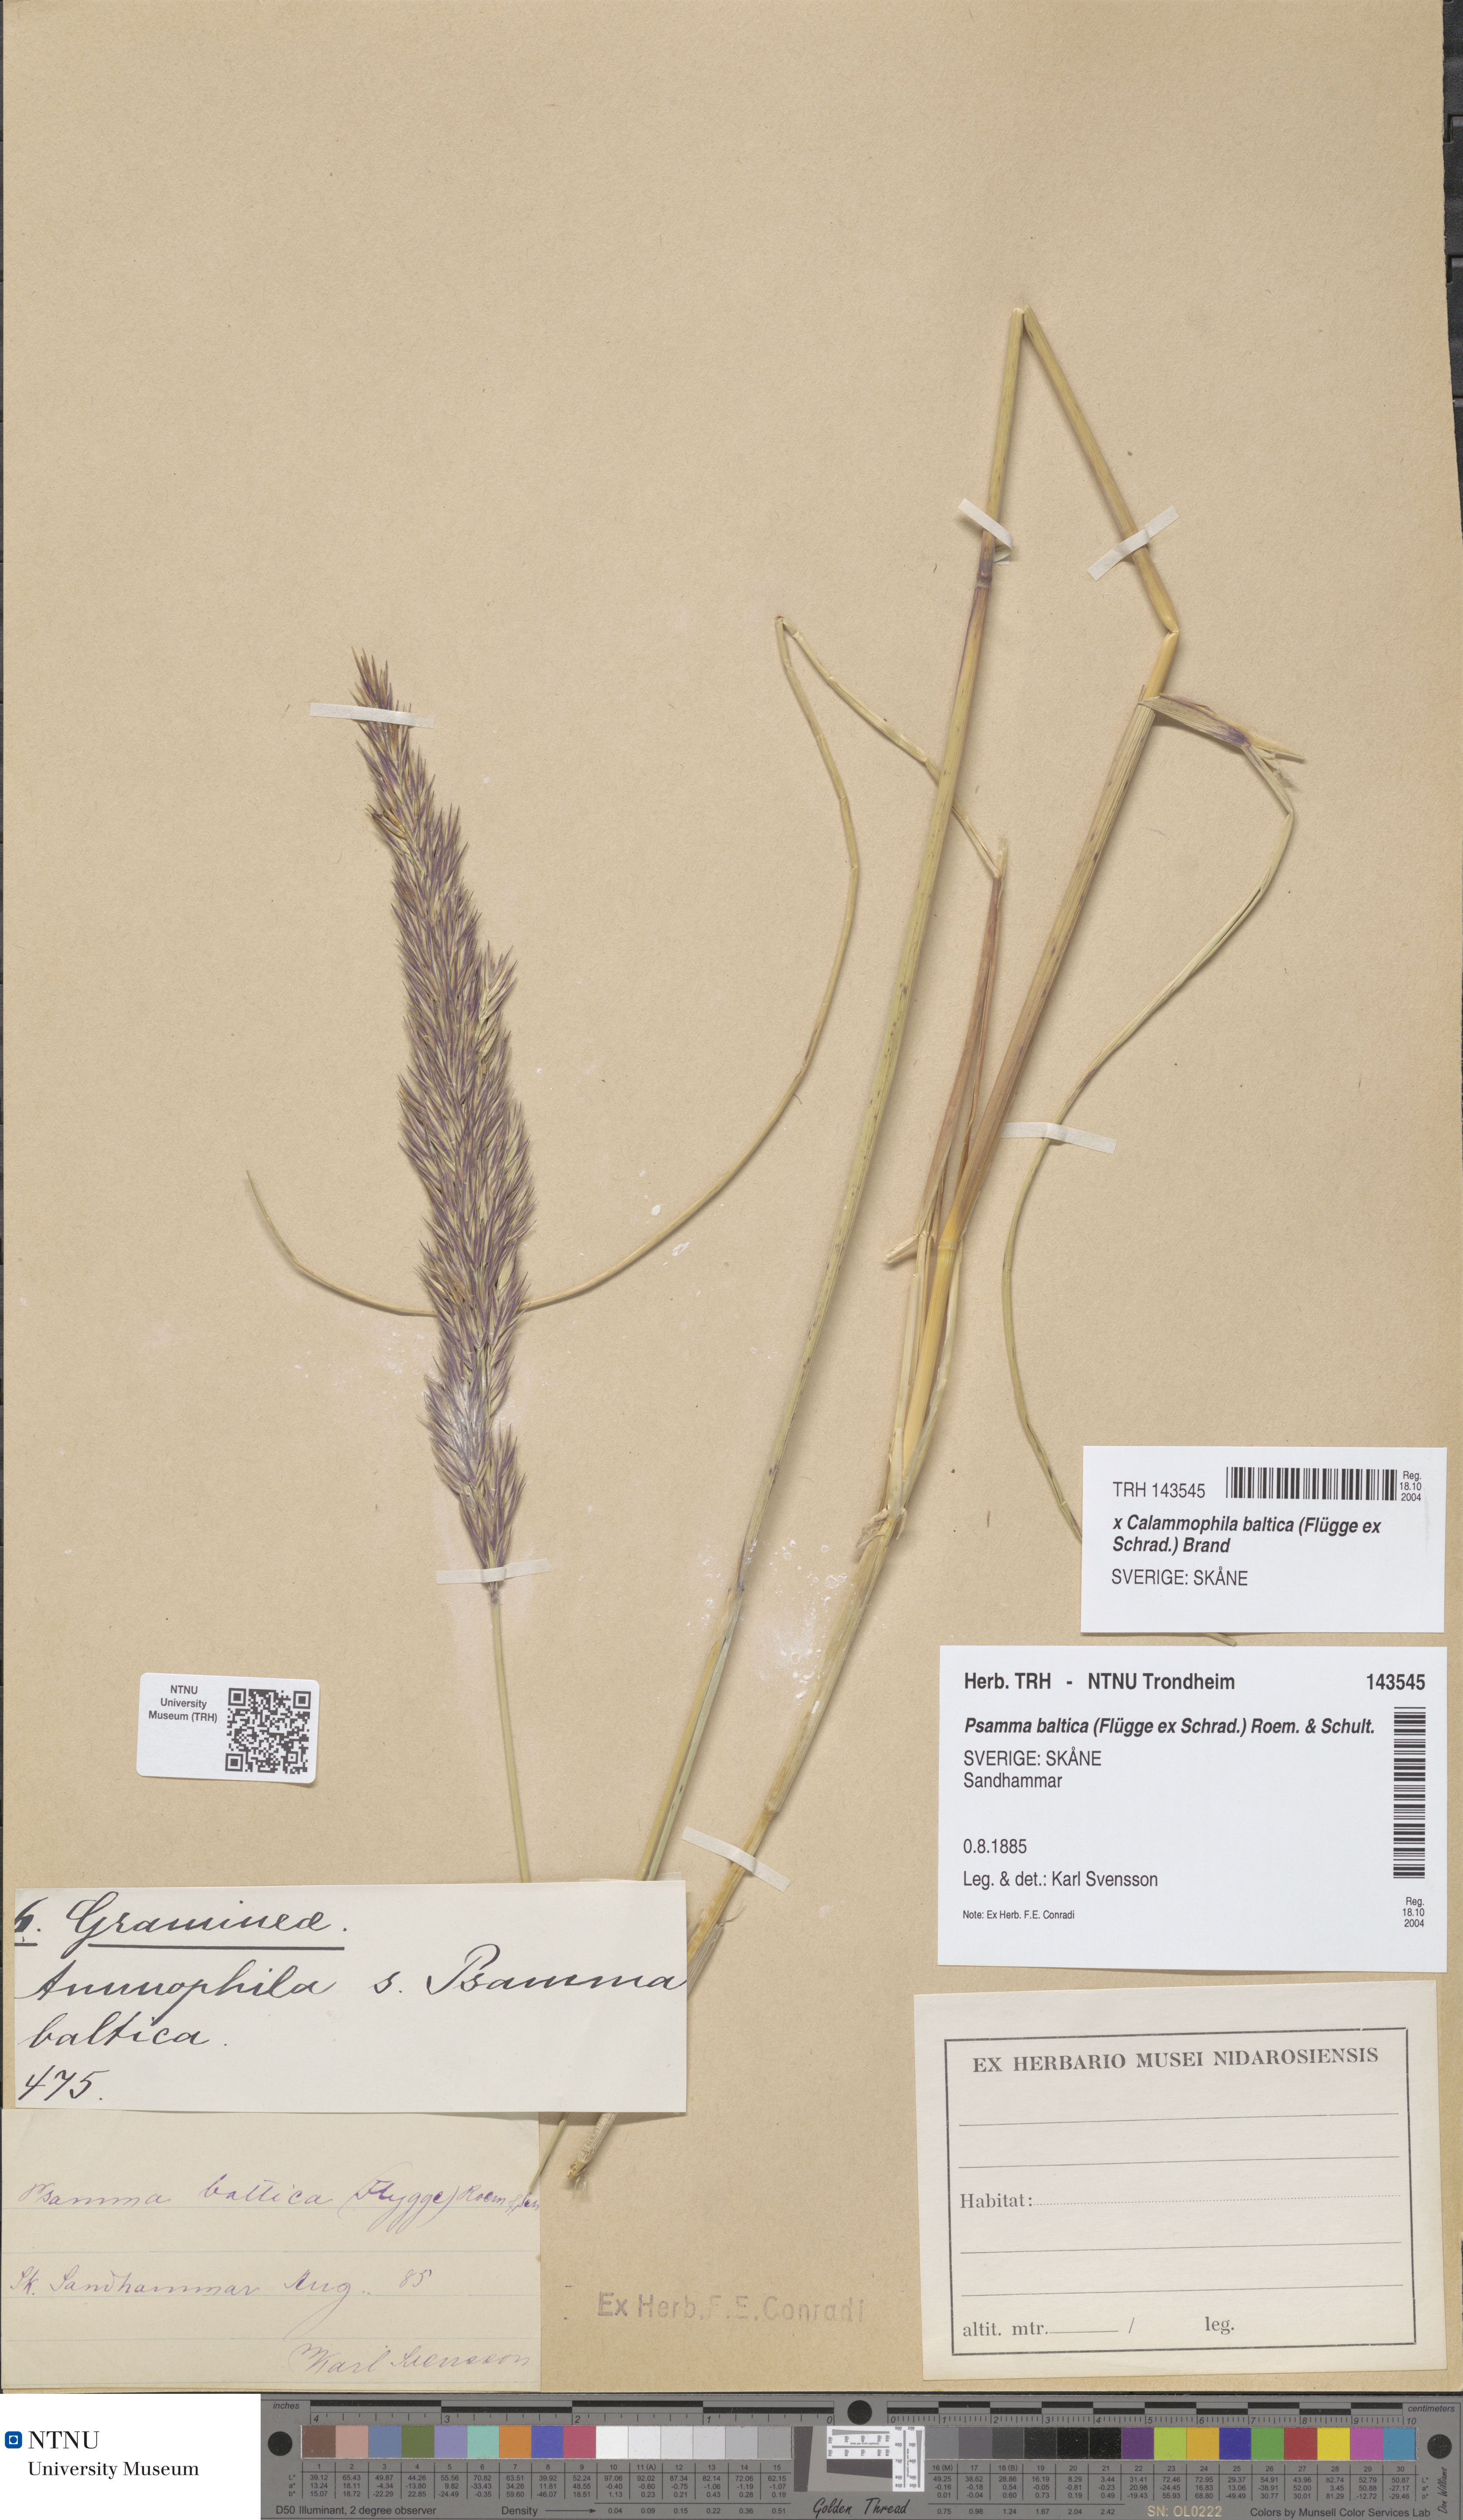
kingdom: Plantae
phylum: Tracheophyta
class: Liliopsida
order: Poales
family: Poaceae
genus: Calamagrostis
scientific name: Calamagrostis baltica
